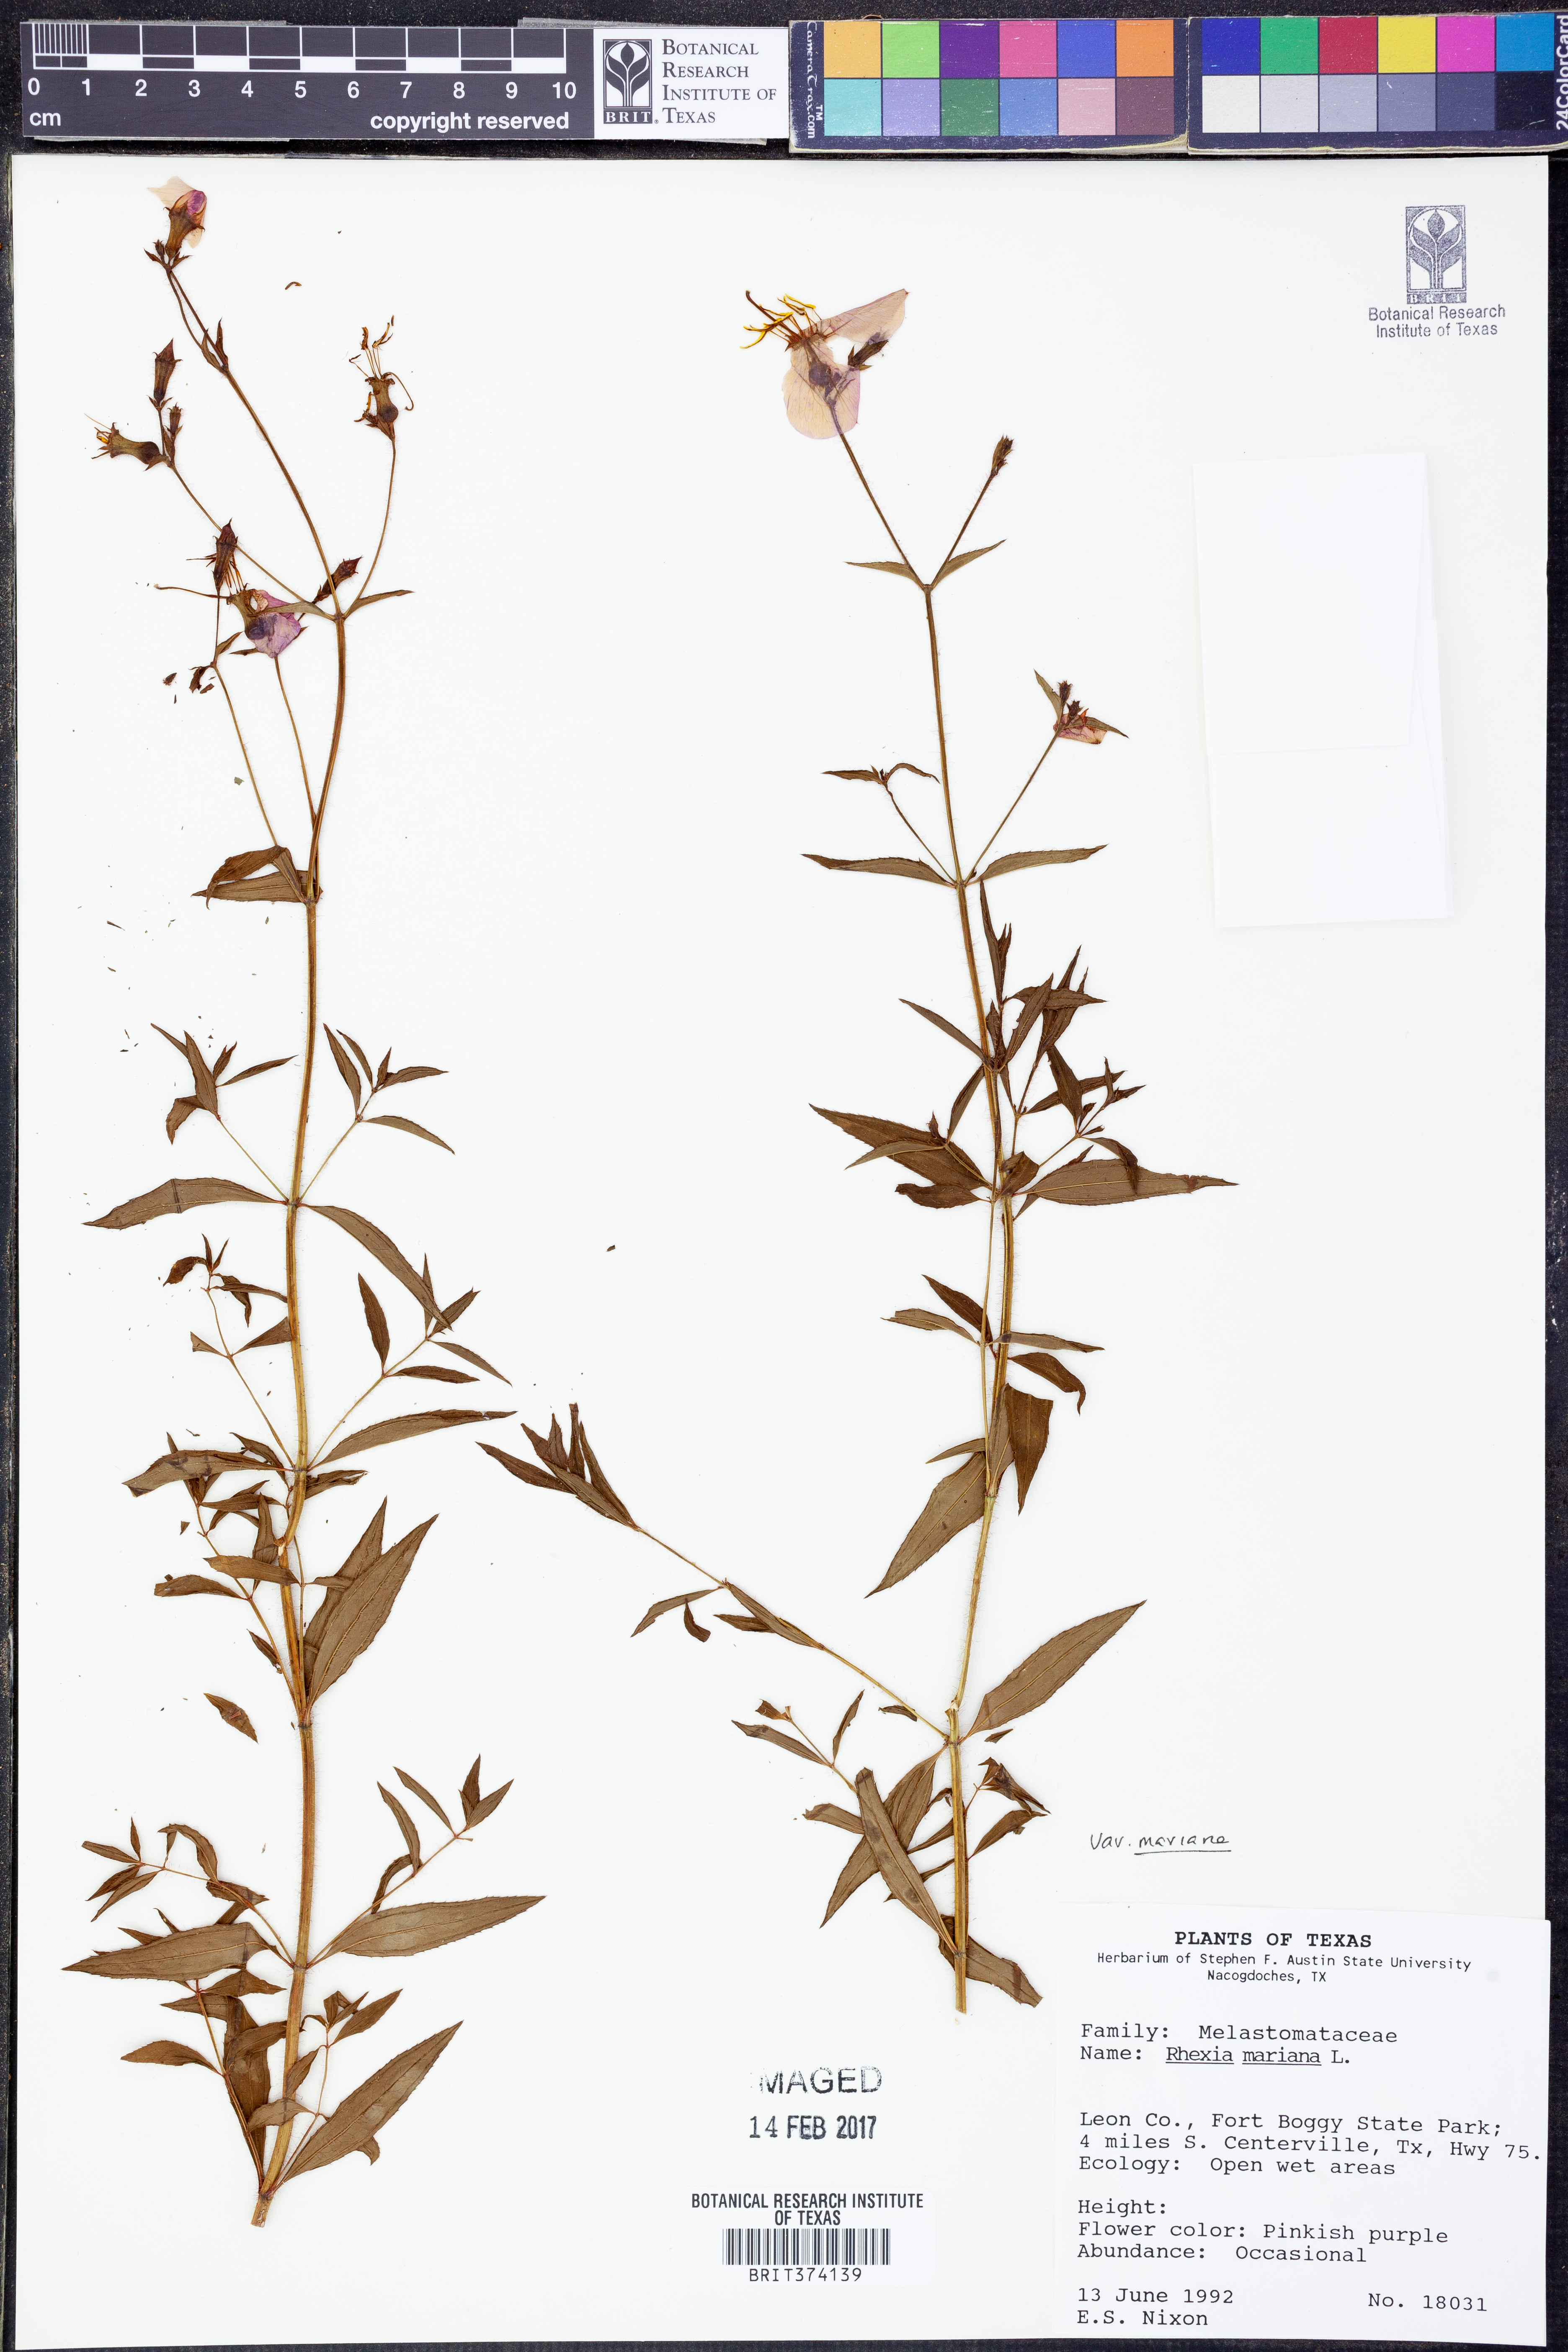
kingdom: Plantae
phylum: Tracheophyta
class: Magnoliopsida
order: Myrtales
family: Melastomataceae
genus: Rhexia
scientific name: Rhexia mariana
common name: Dull meadow-pitcher
